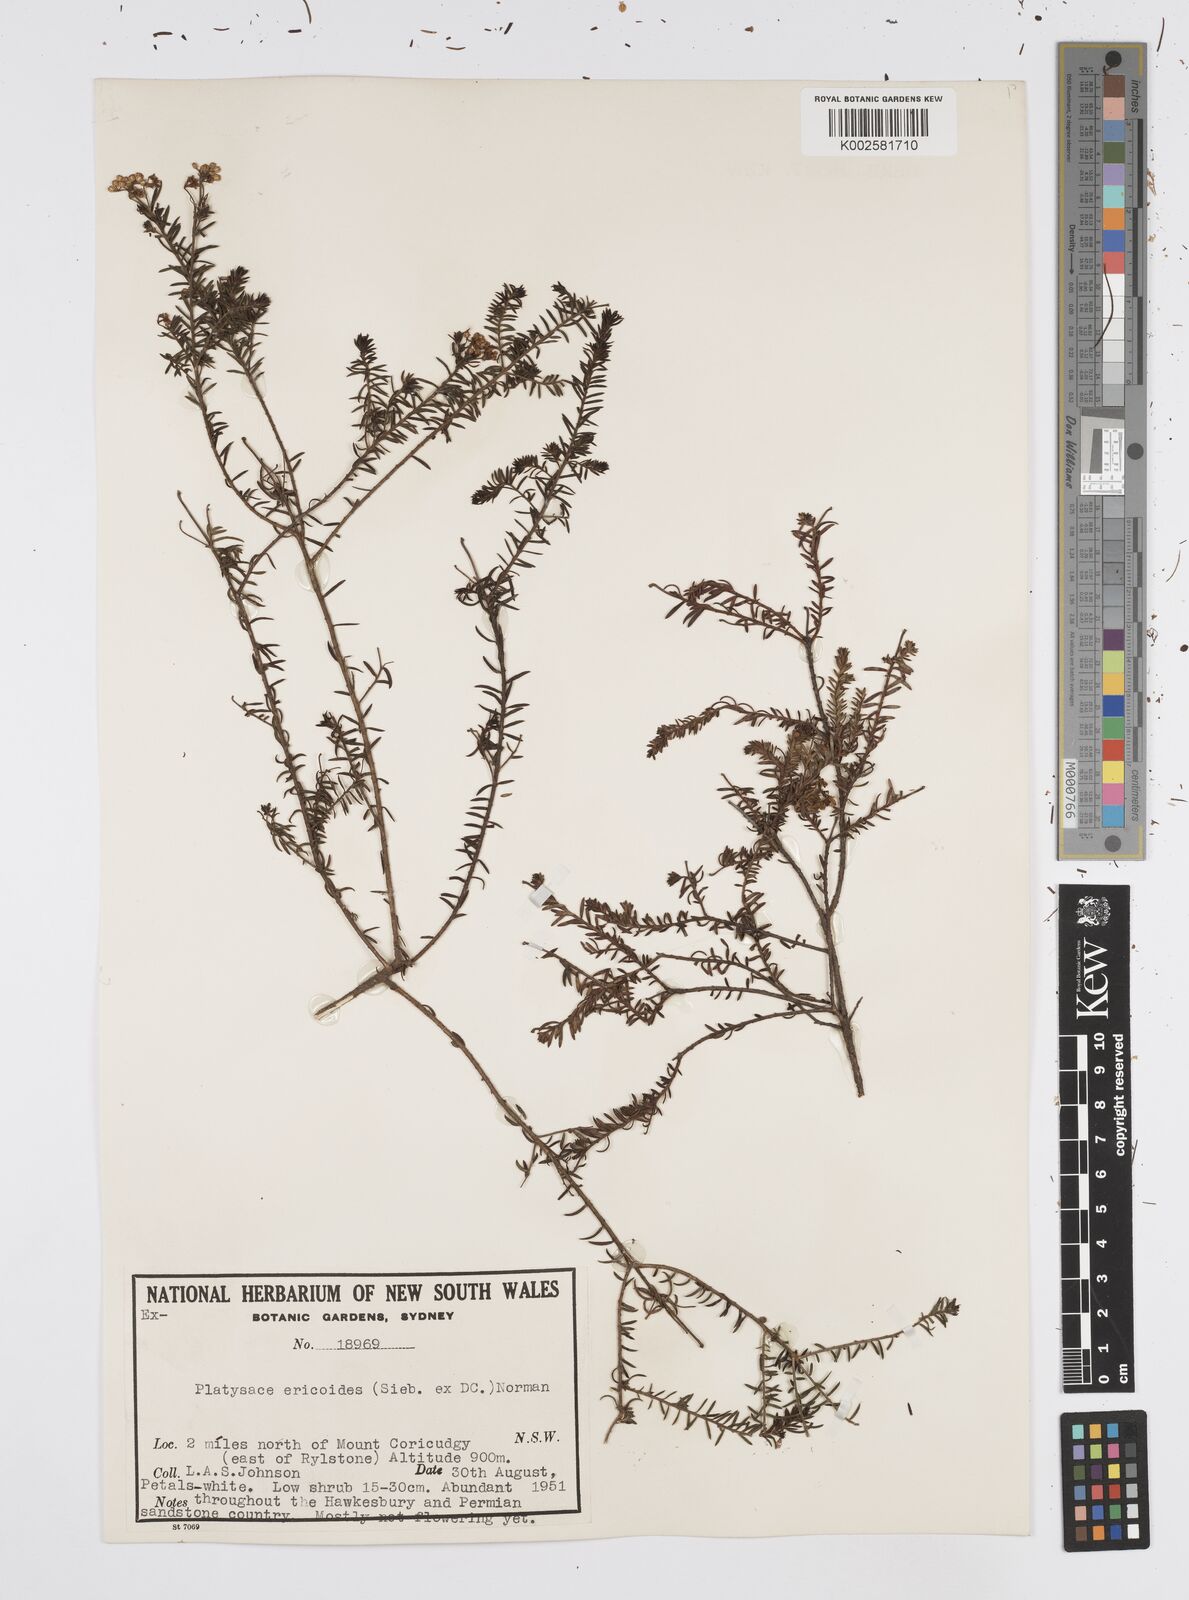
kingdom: Plantae
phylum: Tracheophyta
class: Magnoliopsida
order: Apiales
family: Apiaceae
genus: Platysace
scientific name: Platysace ericoides
